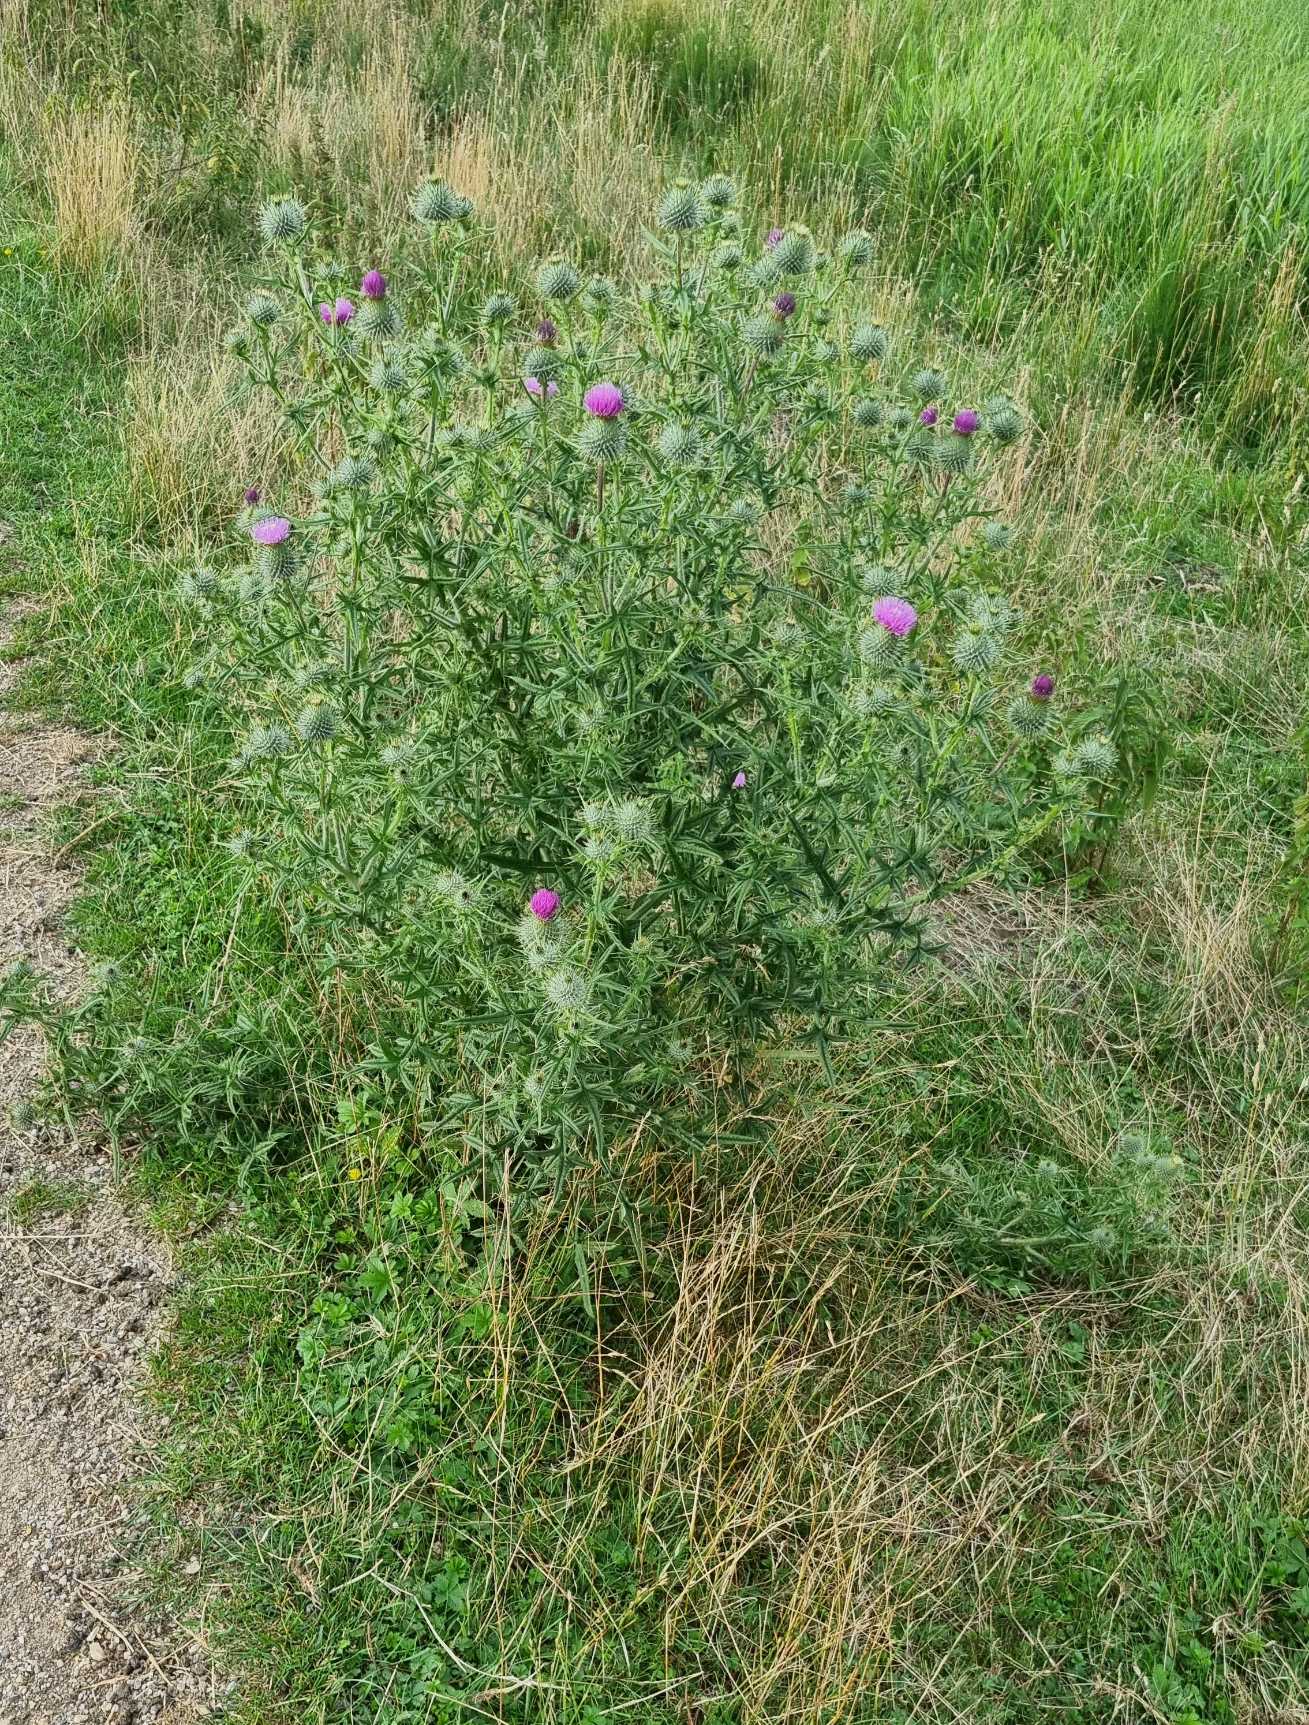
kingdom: Plantae
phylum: Tracheophyta
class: Magnoliopsida
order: Asterales
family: Asteraceae
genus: Cirsium
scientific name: Cirsium vulgare
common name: Horse-tidsel
